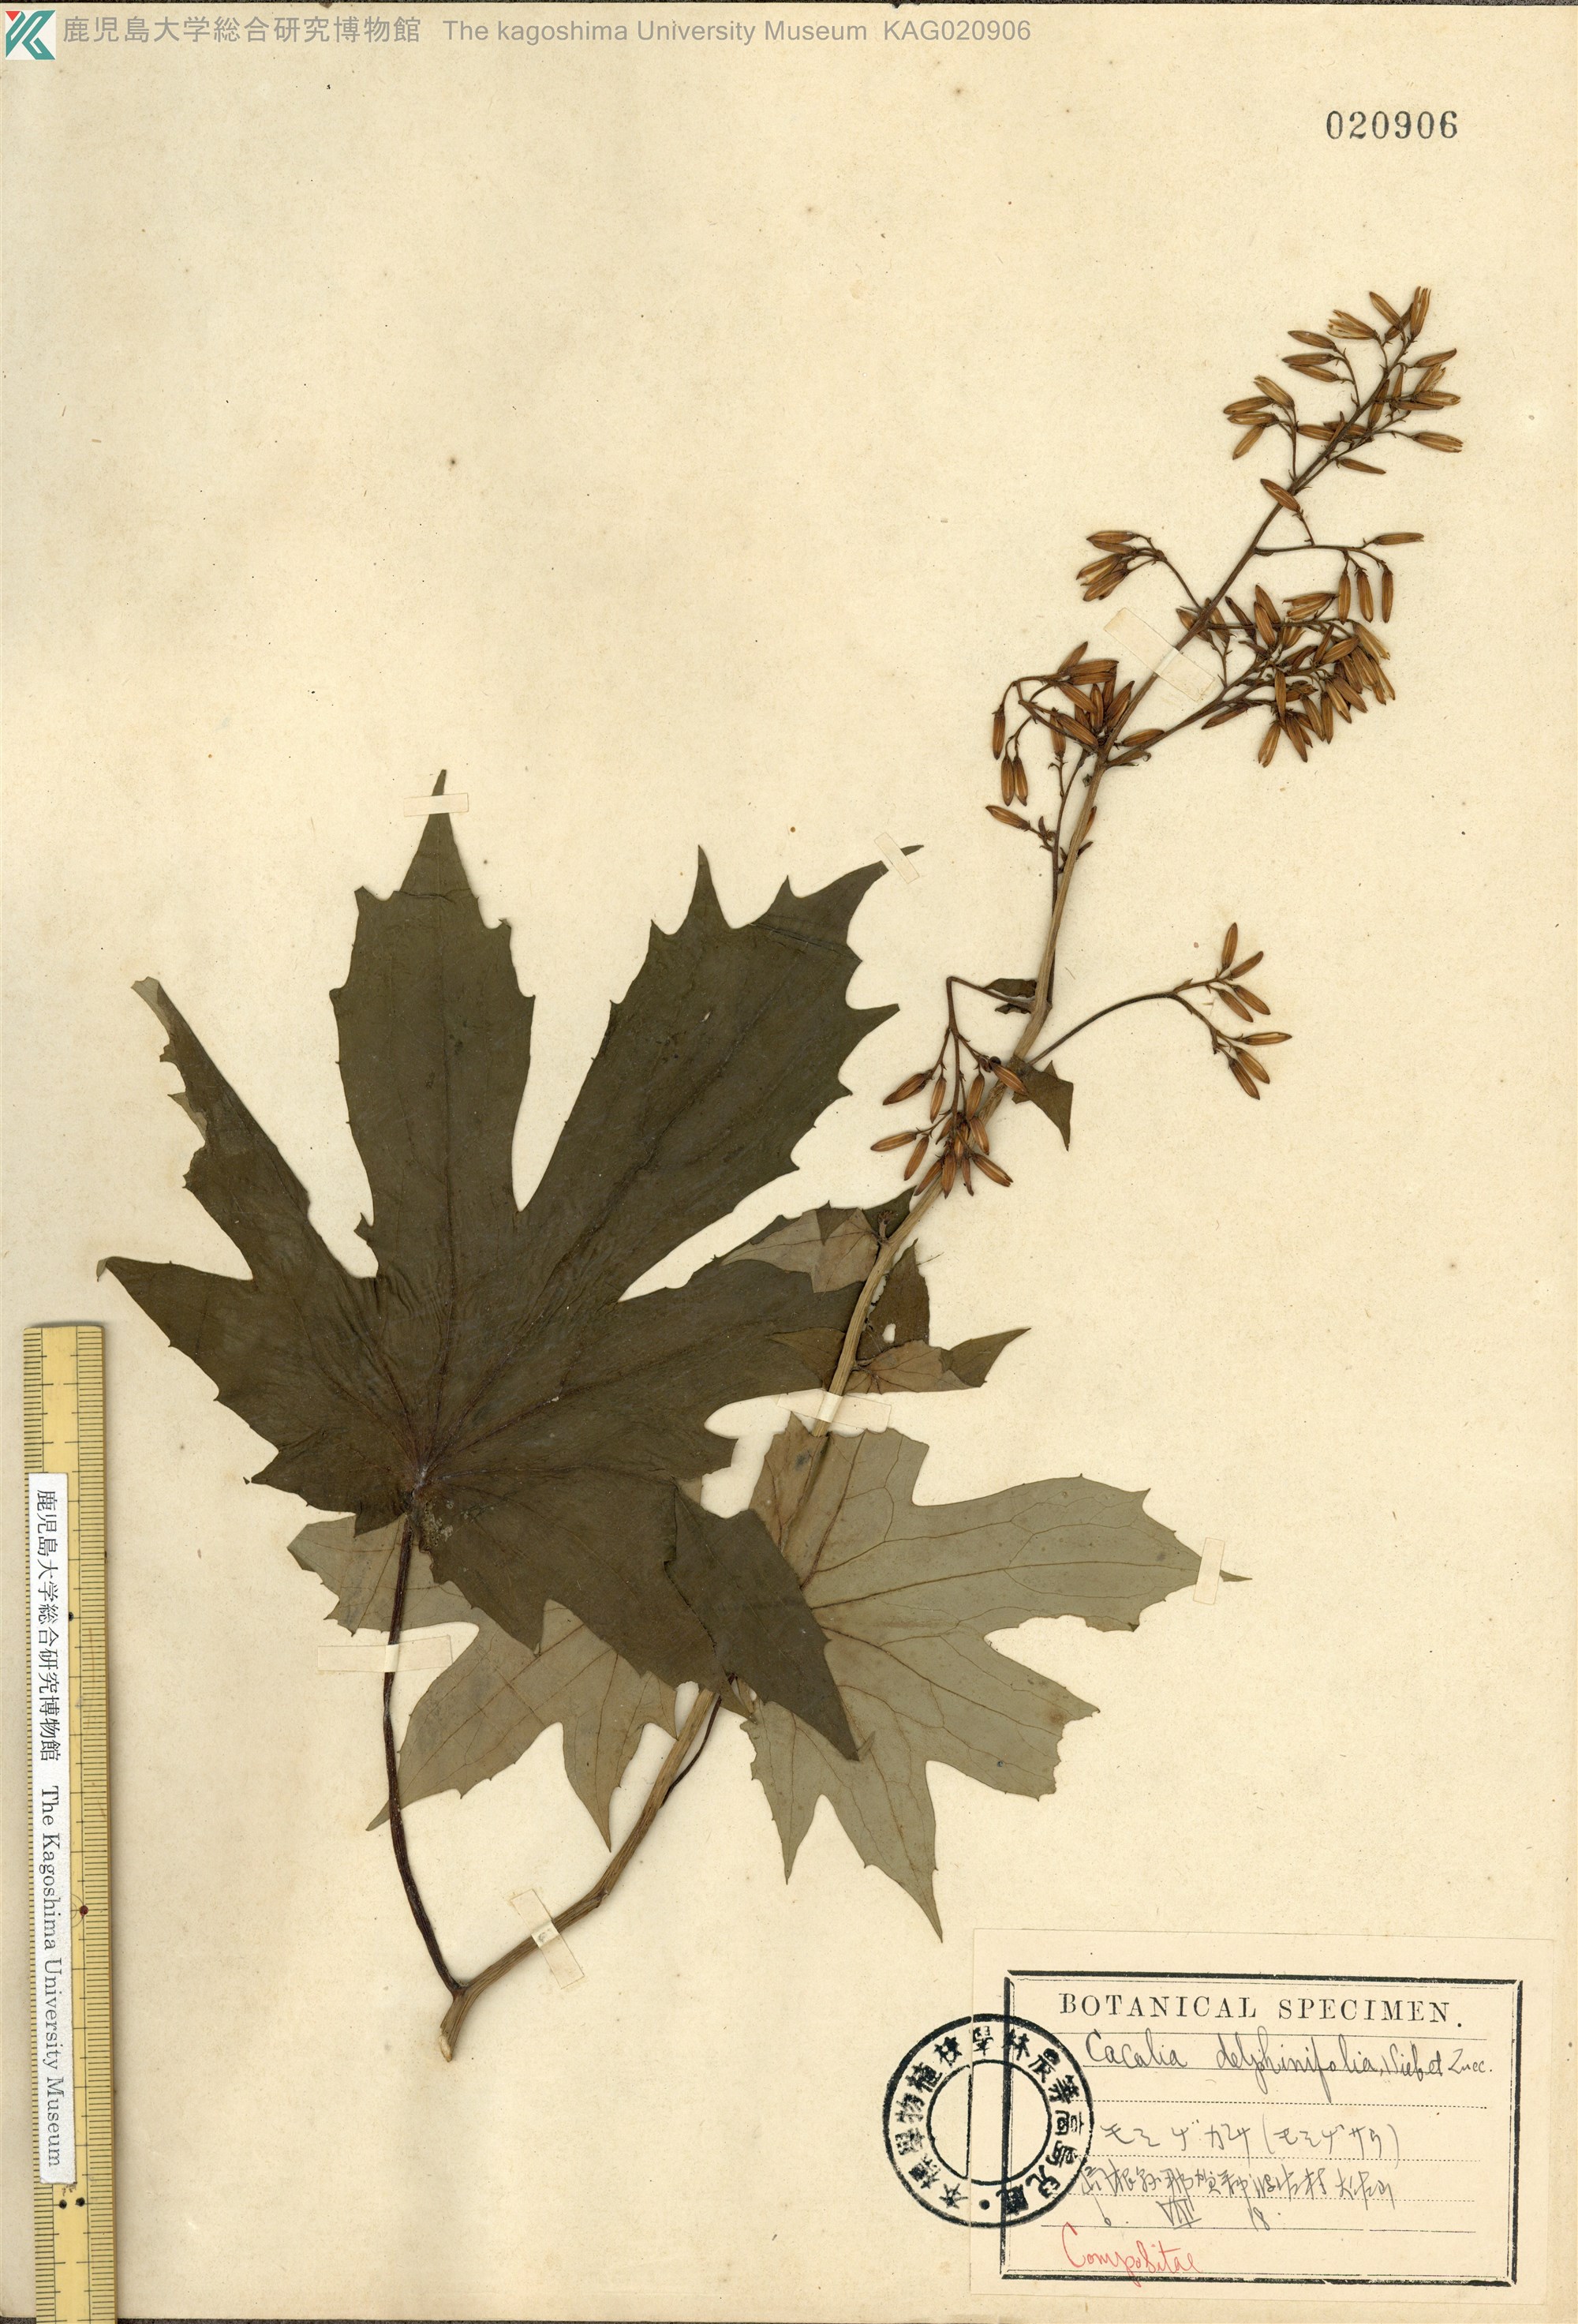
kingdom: Plantae
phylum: Tracheophyta
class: Magnoliopsida
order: Asterales
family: Asteraceae
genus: Japonicalia
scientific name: Japonicalia delphiniifolia
